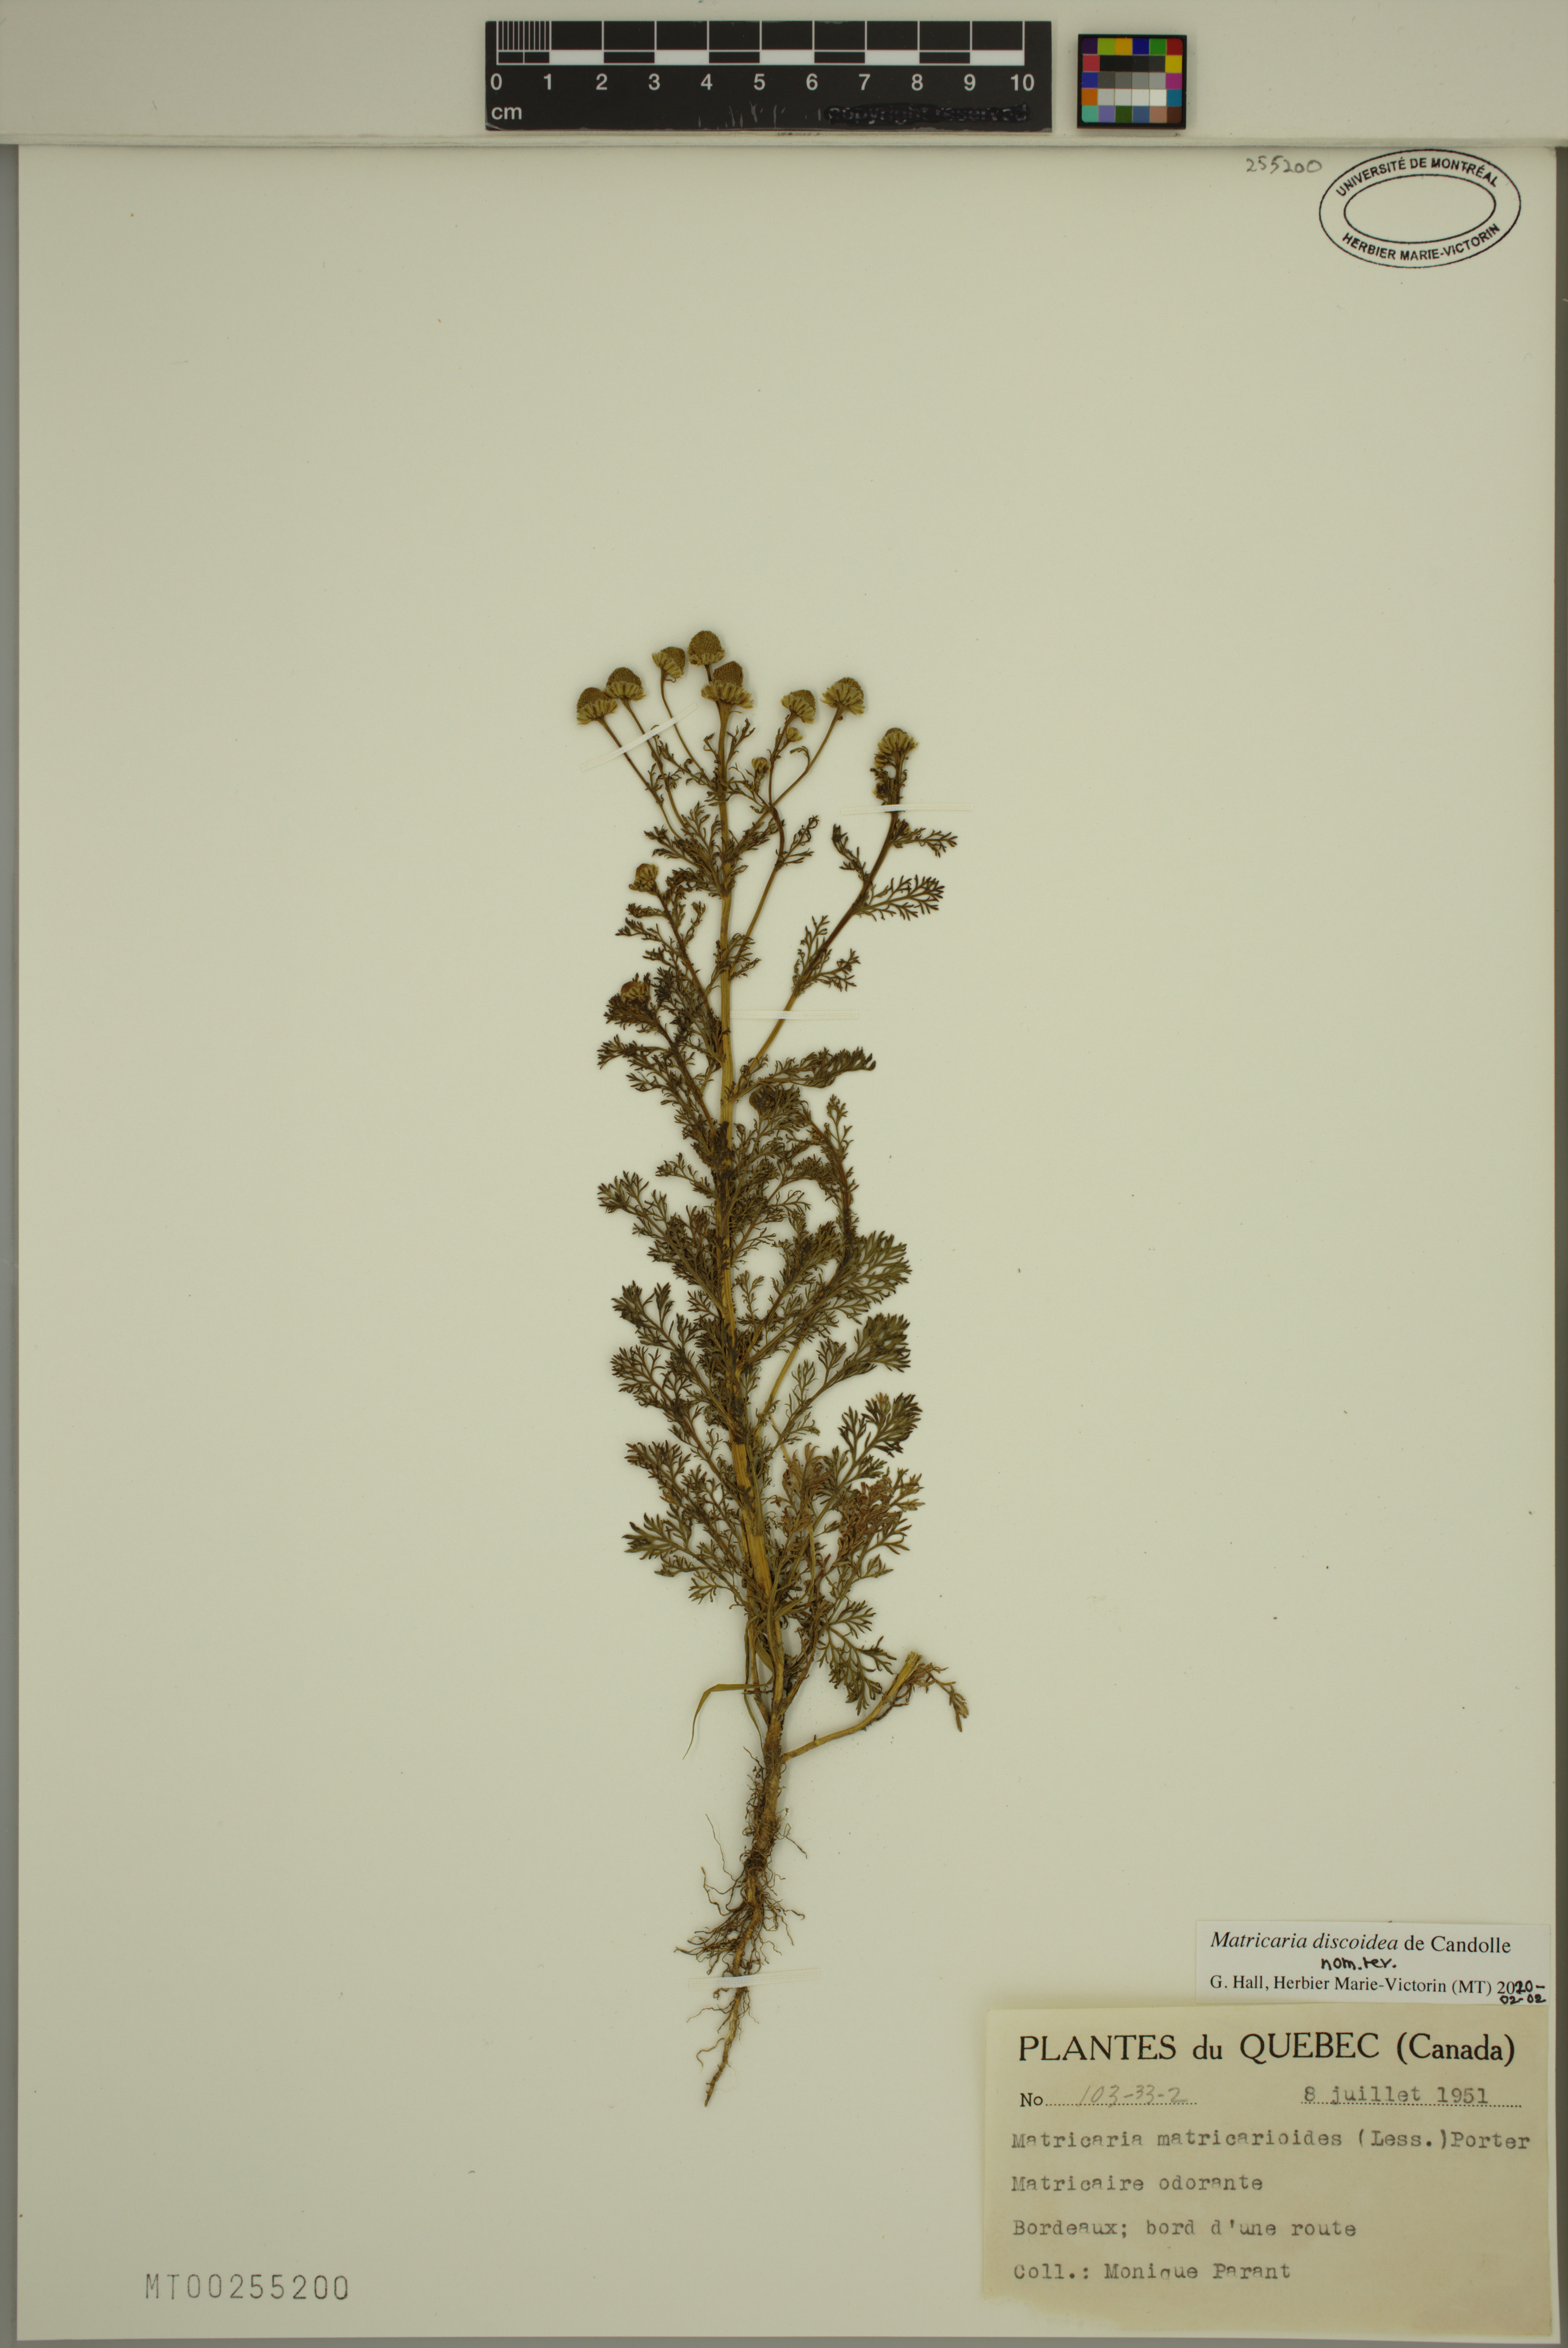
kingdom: Plantae
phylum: Tracheophyta
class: Magnoliopsida
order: Asterales
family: Asteraceae
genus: Matricaria
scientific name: Matricaria discoidea
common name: Disc mayweed
